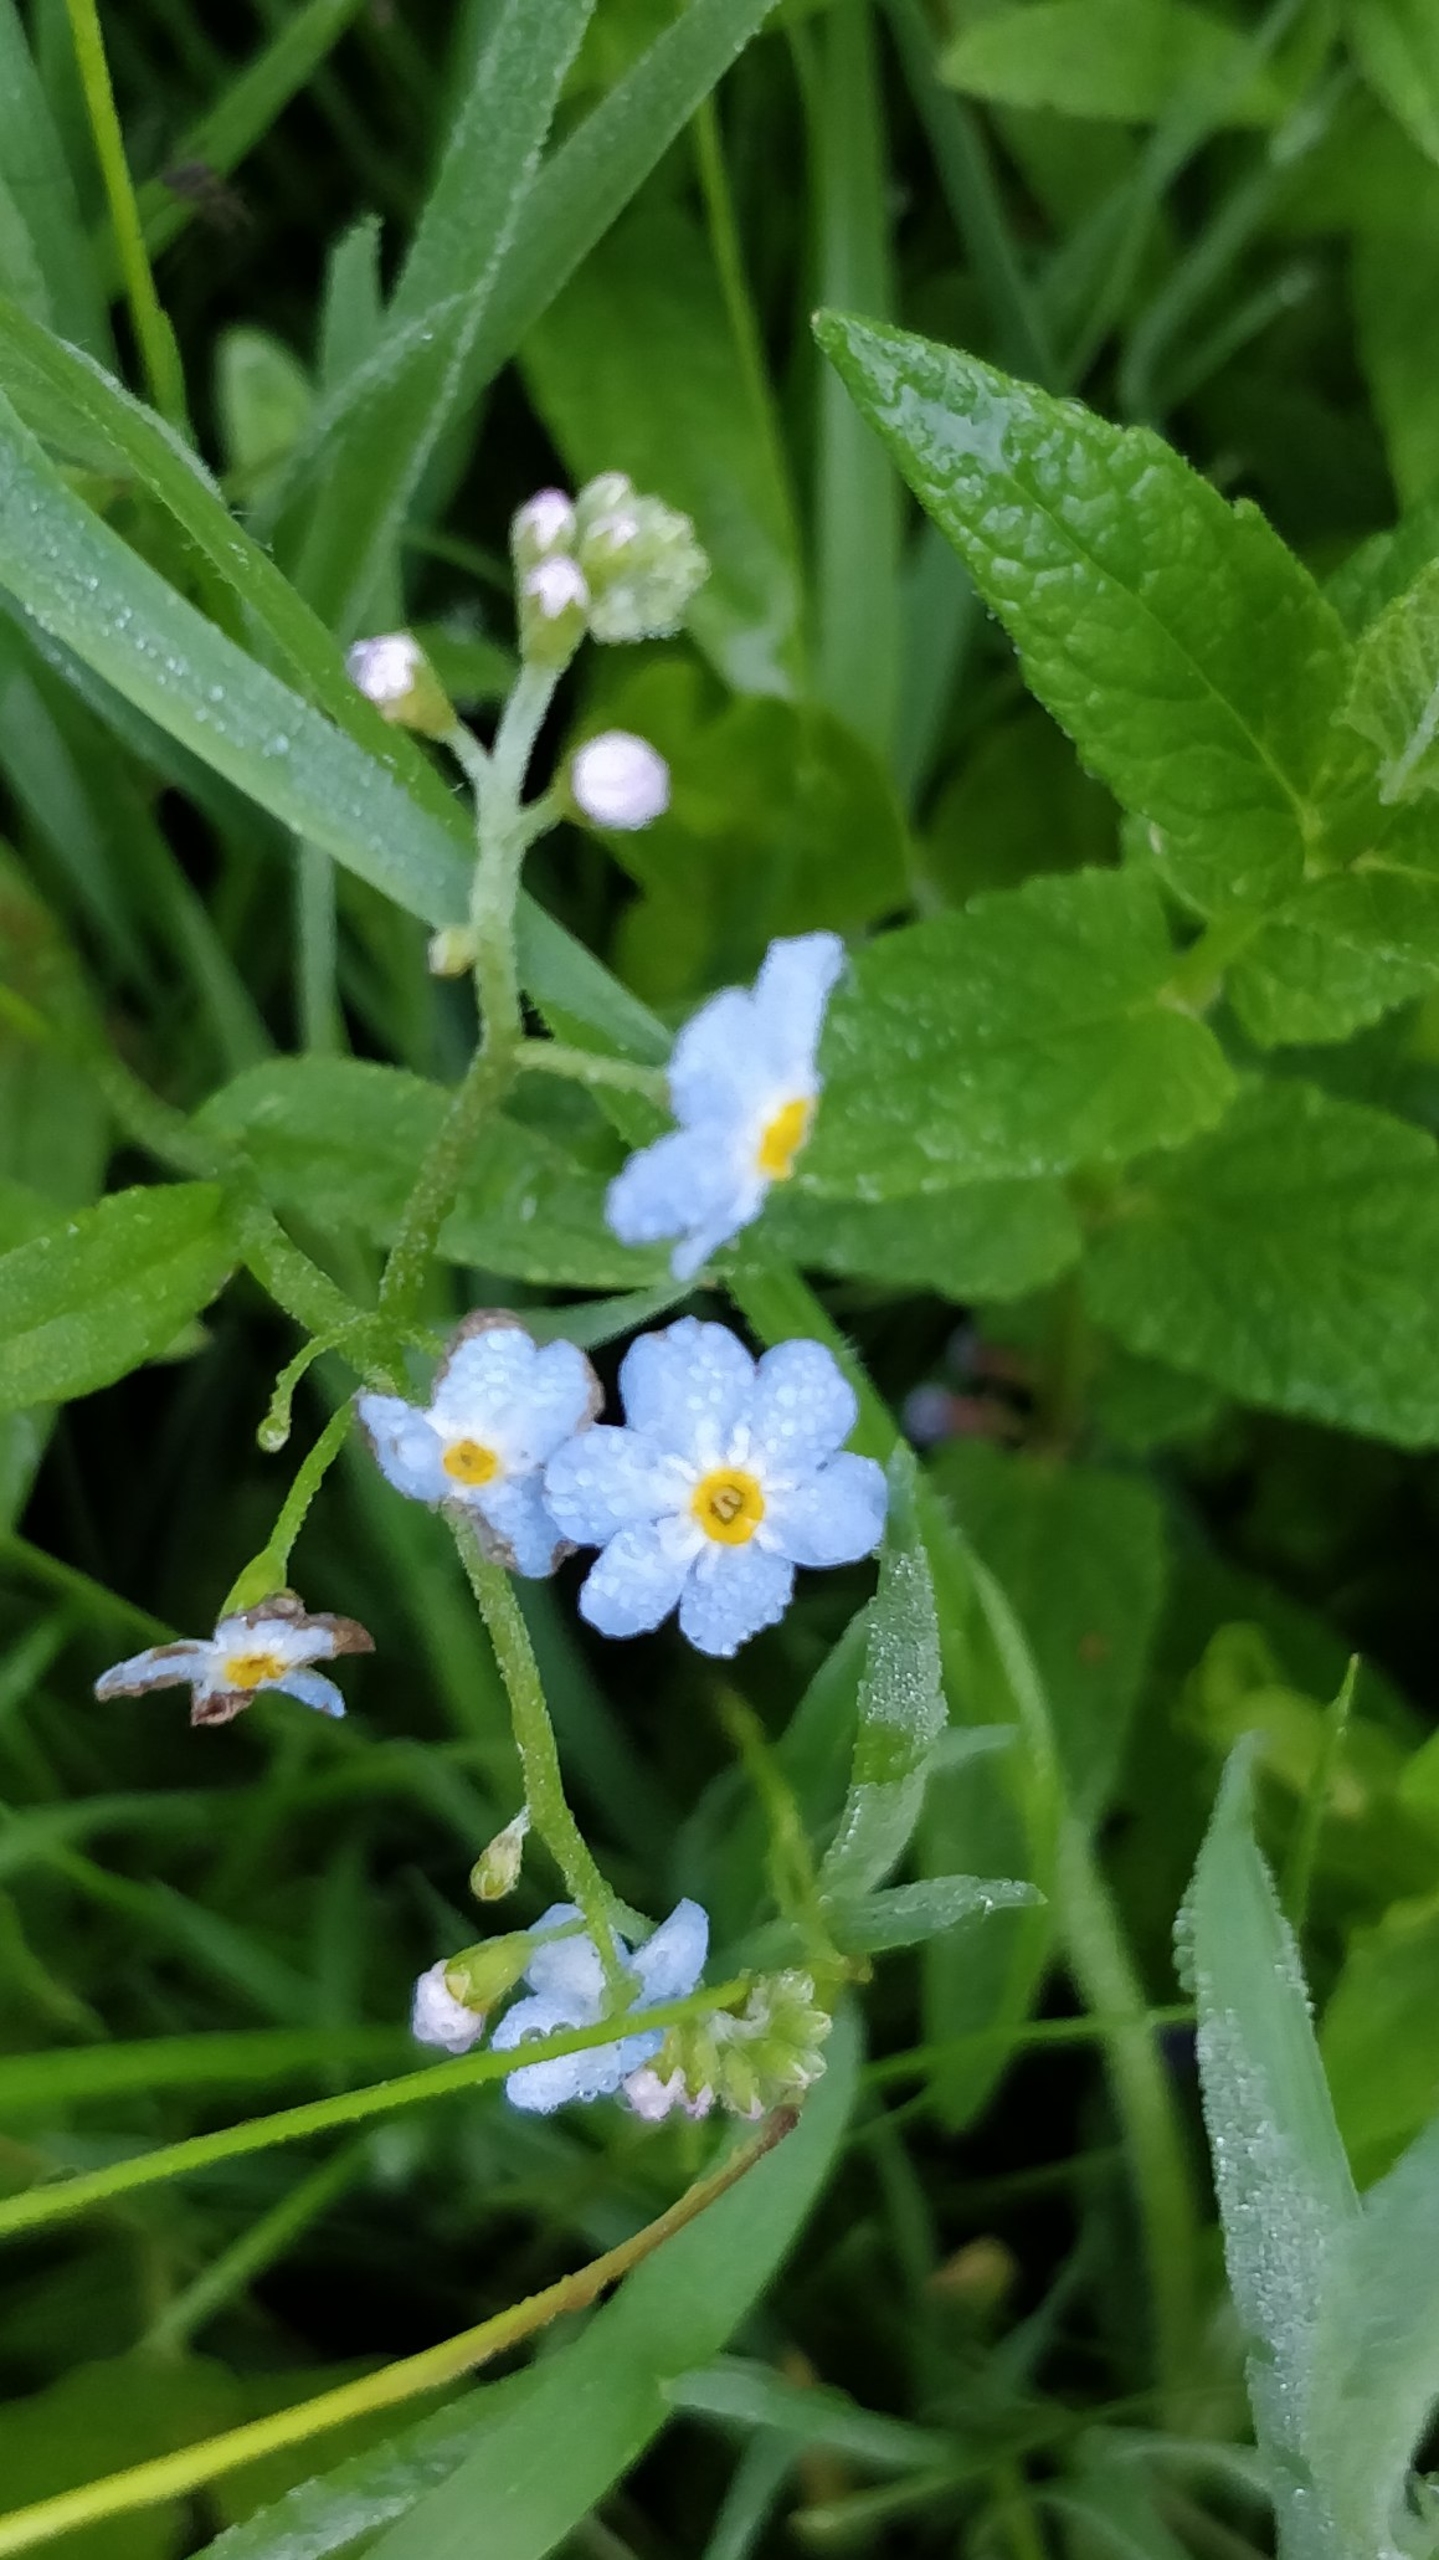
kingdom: Plantae
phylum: Tracheophyta
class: Magnoliopsida
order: Boraginales
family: Boraginaceae
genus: Myosotis
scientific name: Myosotis scorpioides
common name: Eng-forglemmigej
